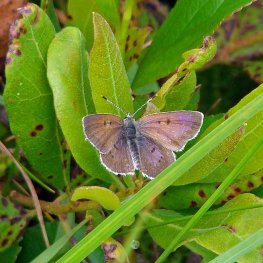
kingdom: Animalia
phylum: Arthropoda
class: Insecta
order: Lepidoptera
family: Sesiidae
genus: Sesia
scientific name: Sesia Lycaena epixanthe
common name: Bog Copper
